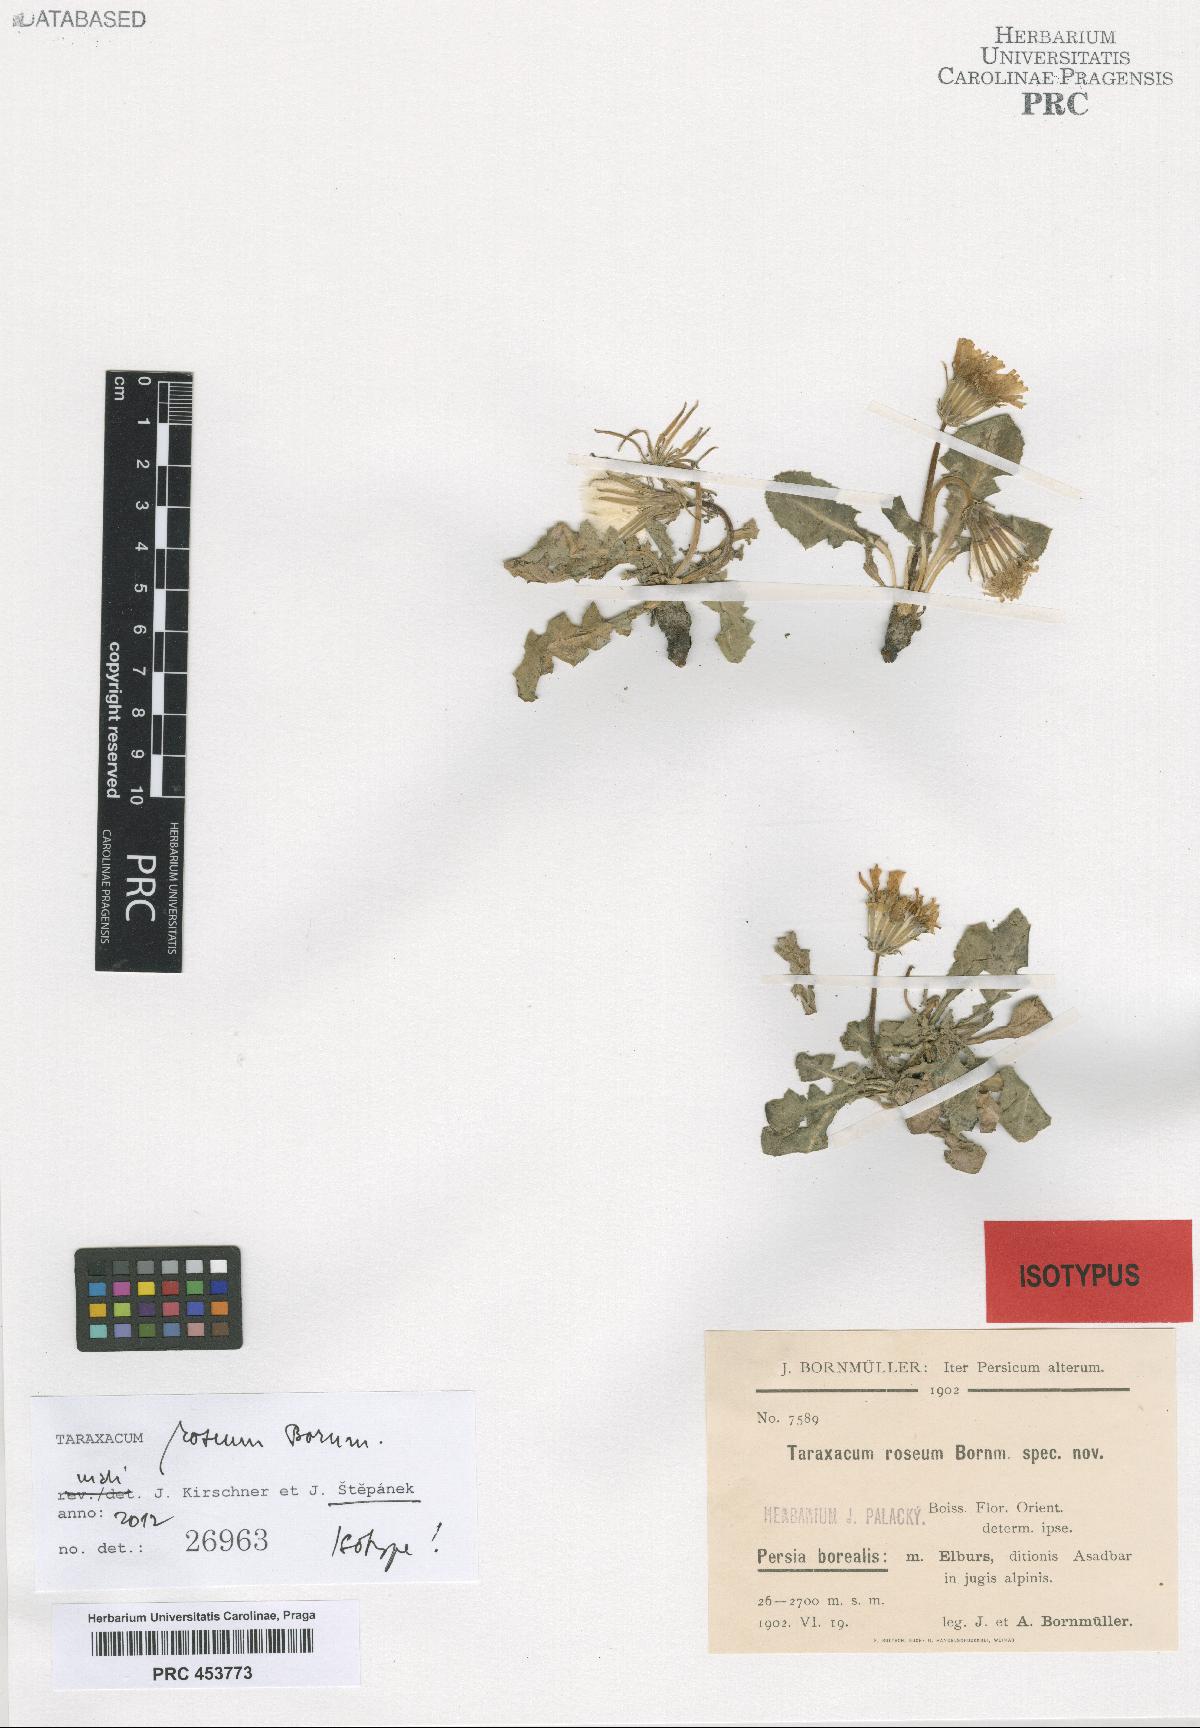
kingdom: Plantae
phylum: Tracheophyta
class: Magnoliopsida
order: Asterales
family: Asteraceae
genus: Taraxacum
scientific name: Taraxacum roseum
